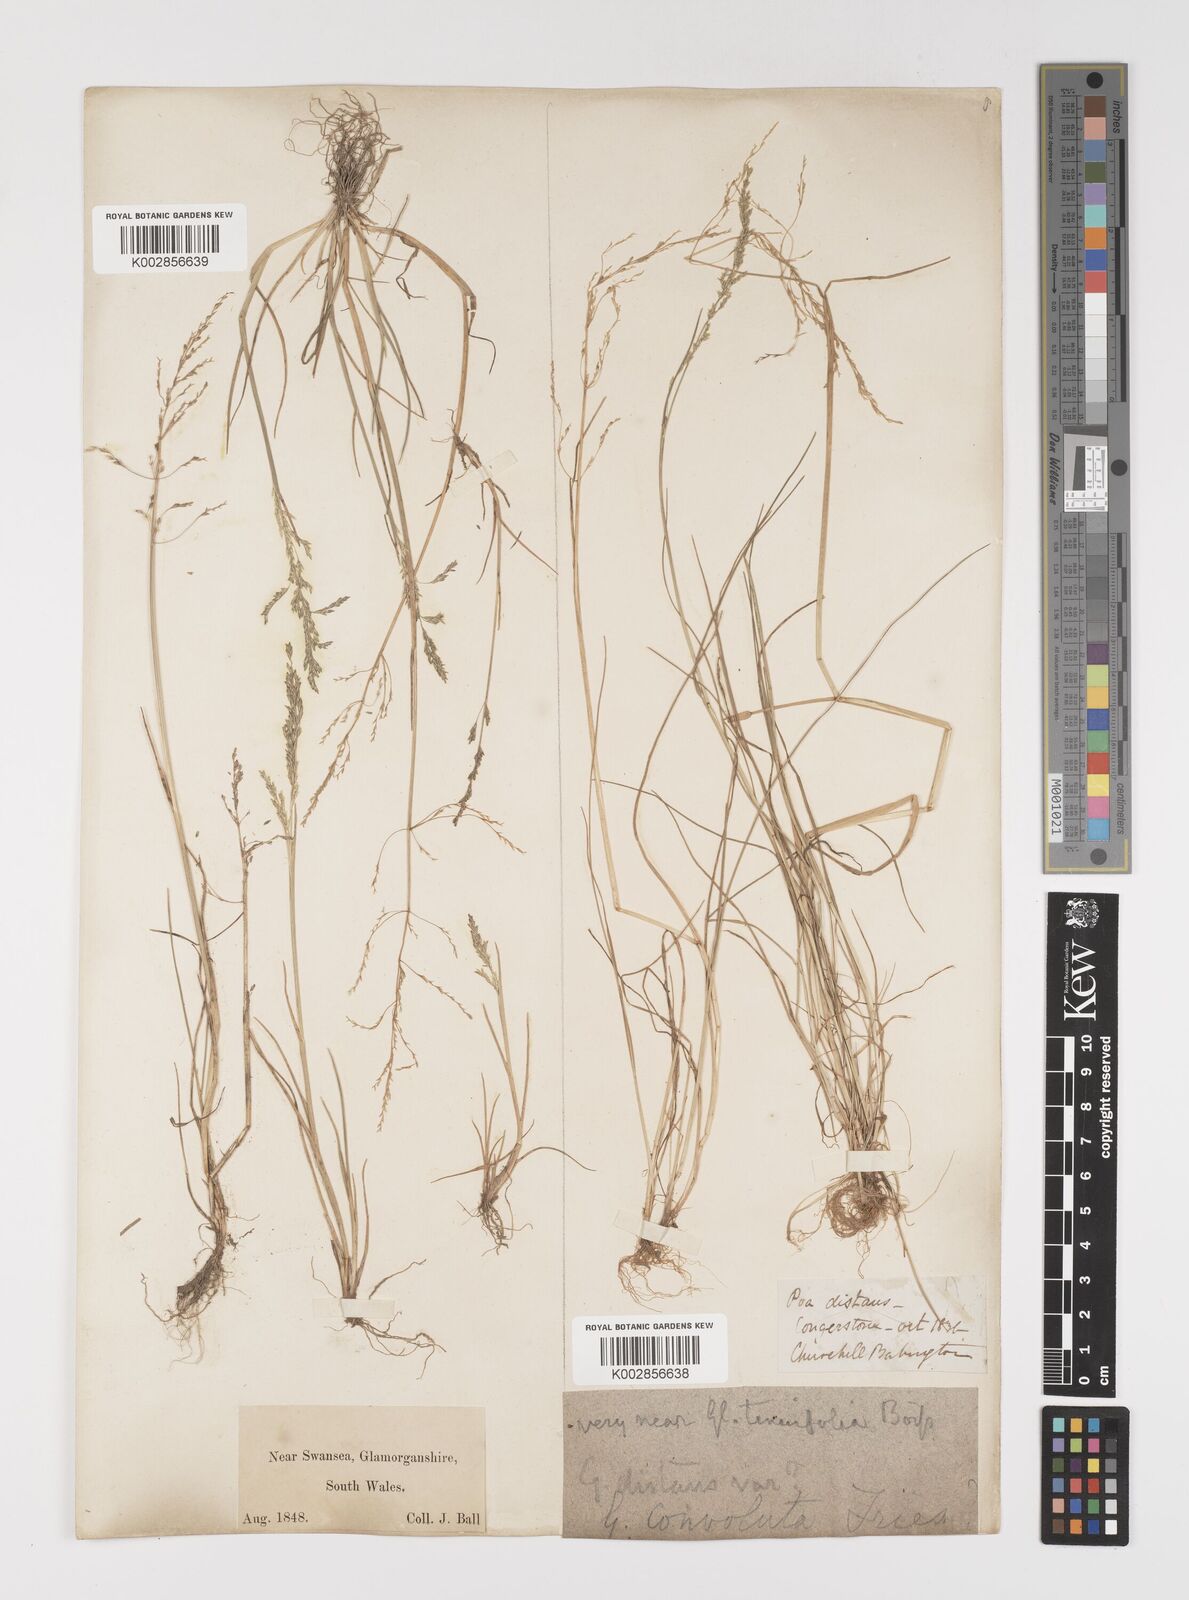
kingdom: Plantae
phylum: Tracheophyta
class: Liliopsida
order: Poales
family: Poaceae
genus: Puccinellia
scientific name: Puccinellia distans
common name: Weeping alkaligrass
